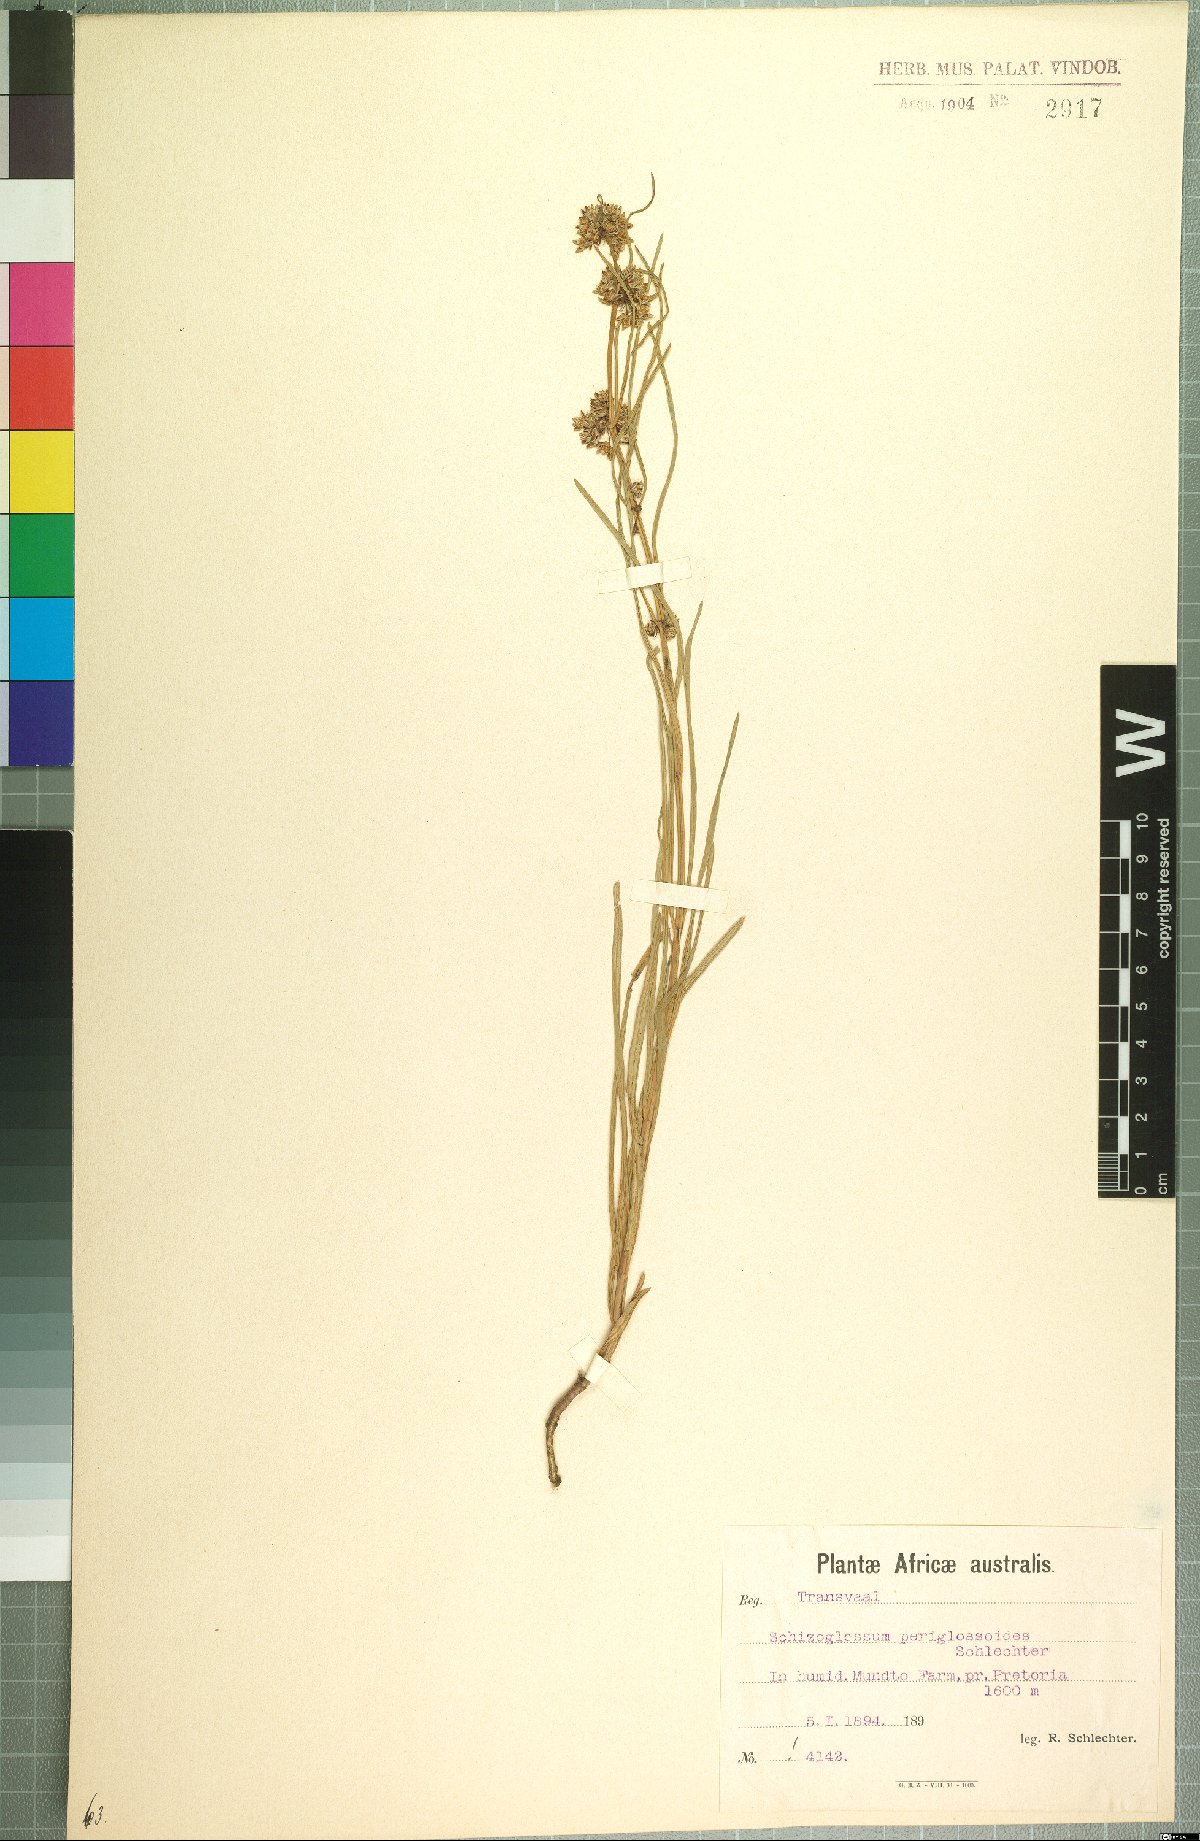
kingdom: Plantae
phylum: Tracheophyta
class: Magnoliopsida
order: Gentianales
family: Apocynaceae
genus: Stenostelma
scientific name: Stenostelma periglossoides
